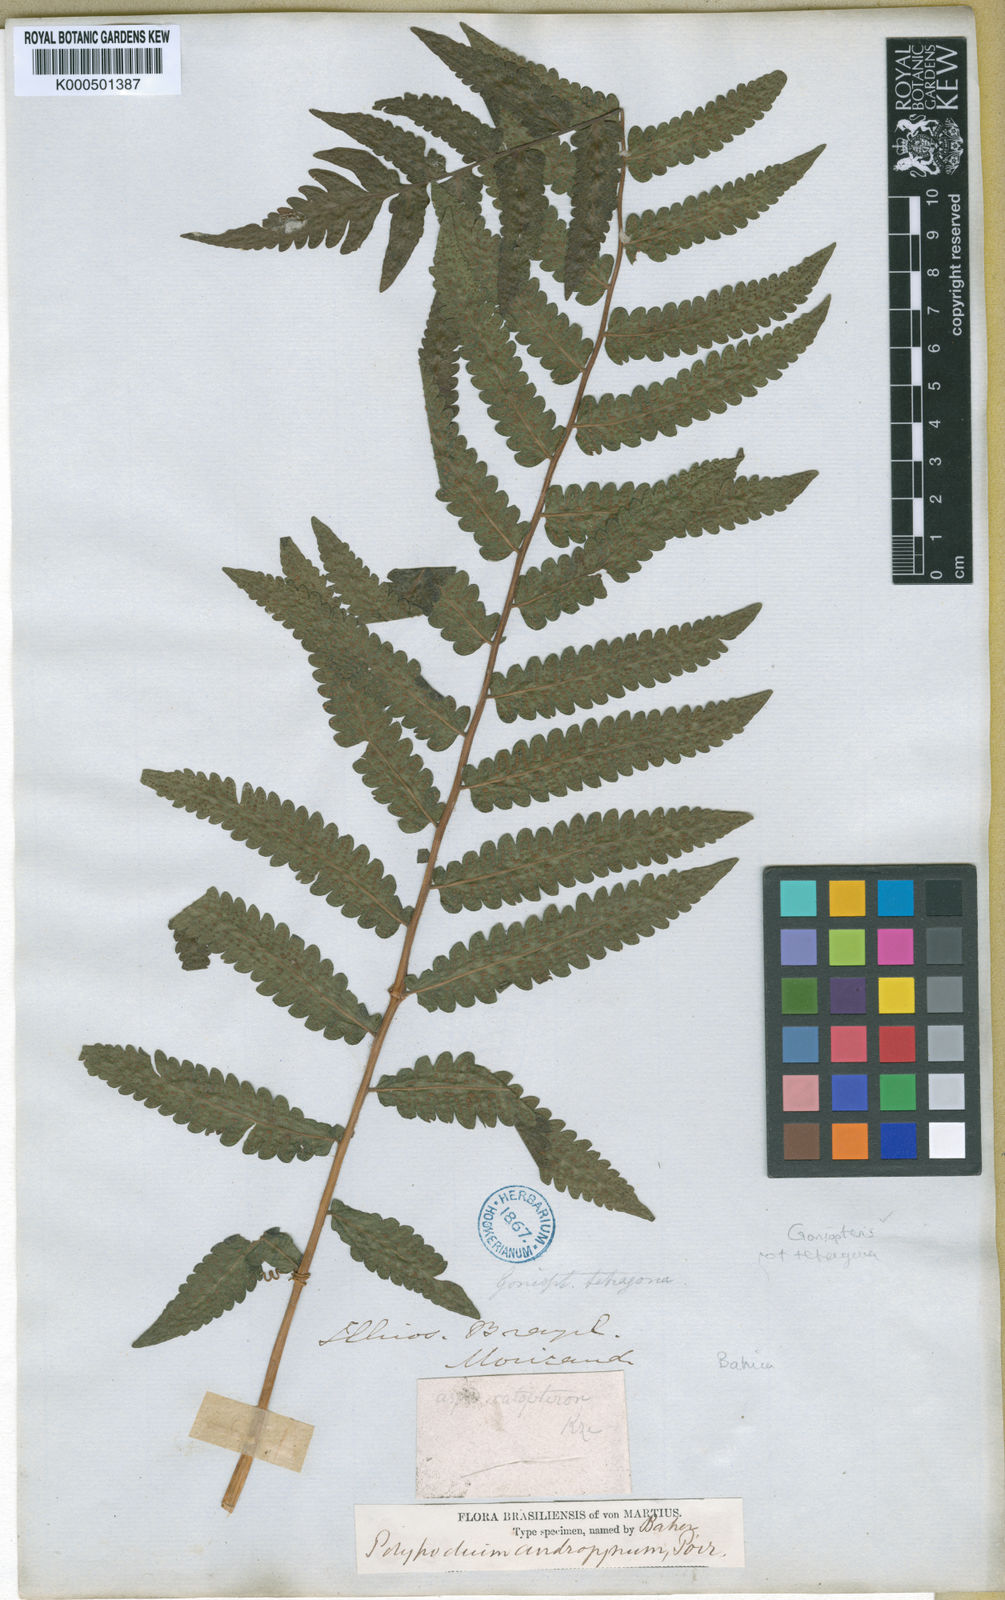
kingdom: Plantae
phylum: Tracheophyta
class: Polypodiopsida
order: Polypodiales
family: Thelypteridaceae
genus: Goniopteris
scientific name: Goniopteris tetragona
